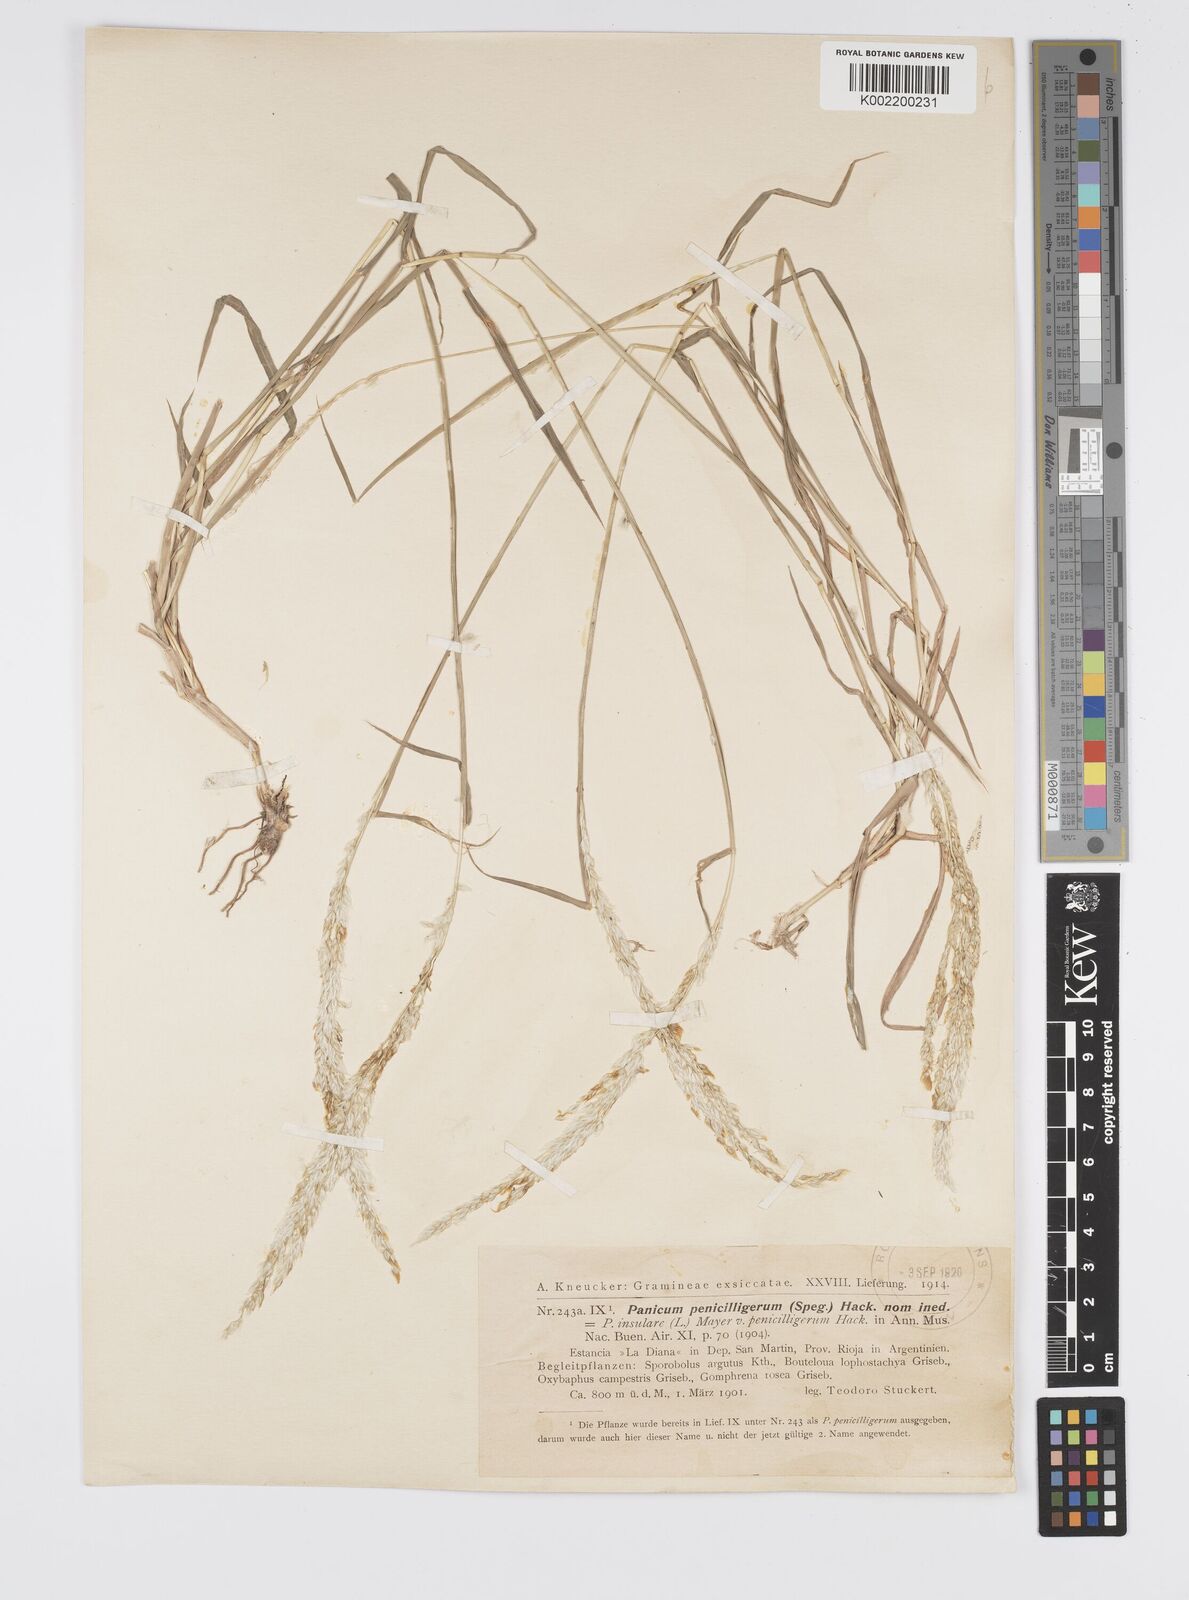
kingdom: Plantae
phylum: Tracheophyta
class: Liliopsida
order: Poales
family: Poaceae
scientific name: Poaceae
